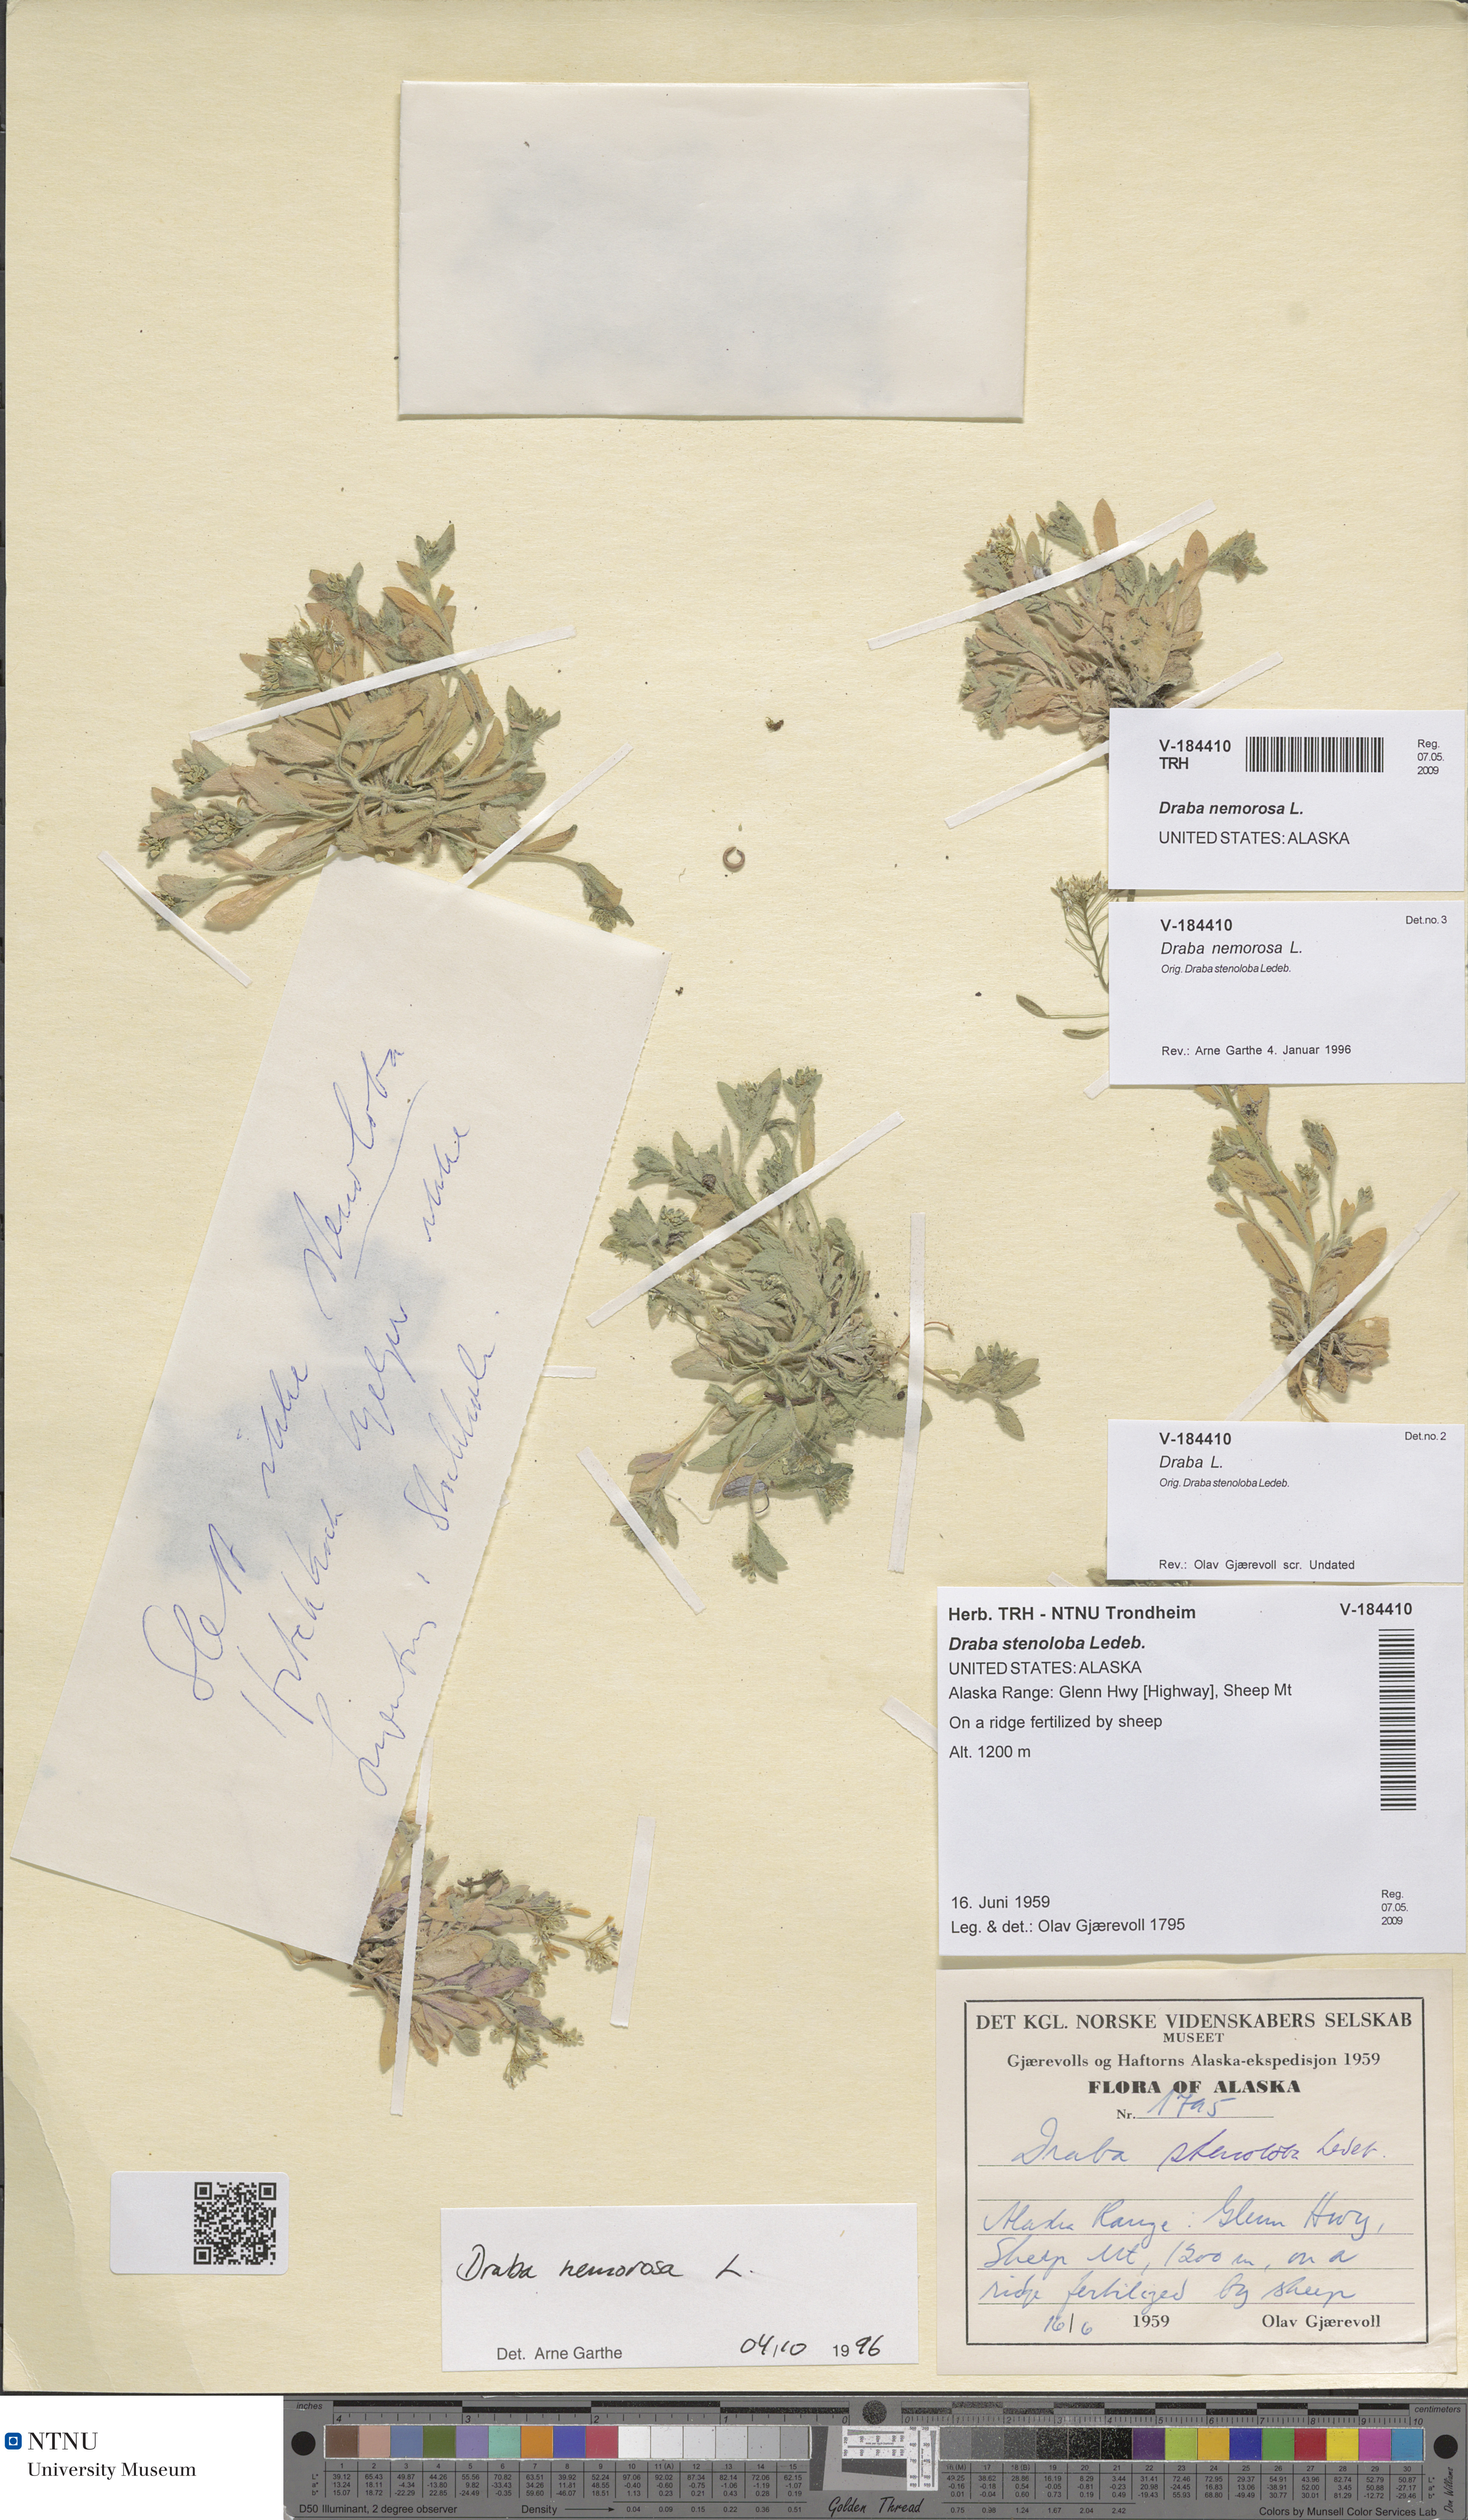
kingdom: Plantae
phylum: Tracheophyta
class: Magnoliopsida
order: Brassicales
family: Brassicaceae
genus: Draba
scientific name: Draba nemorosa
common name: Wood whitlow-grass
